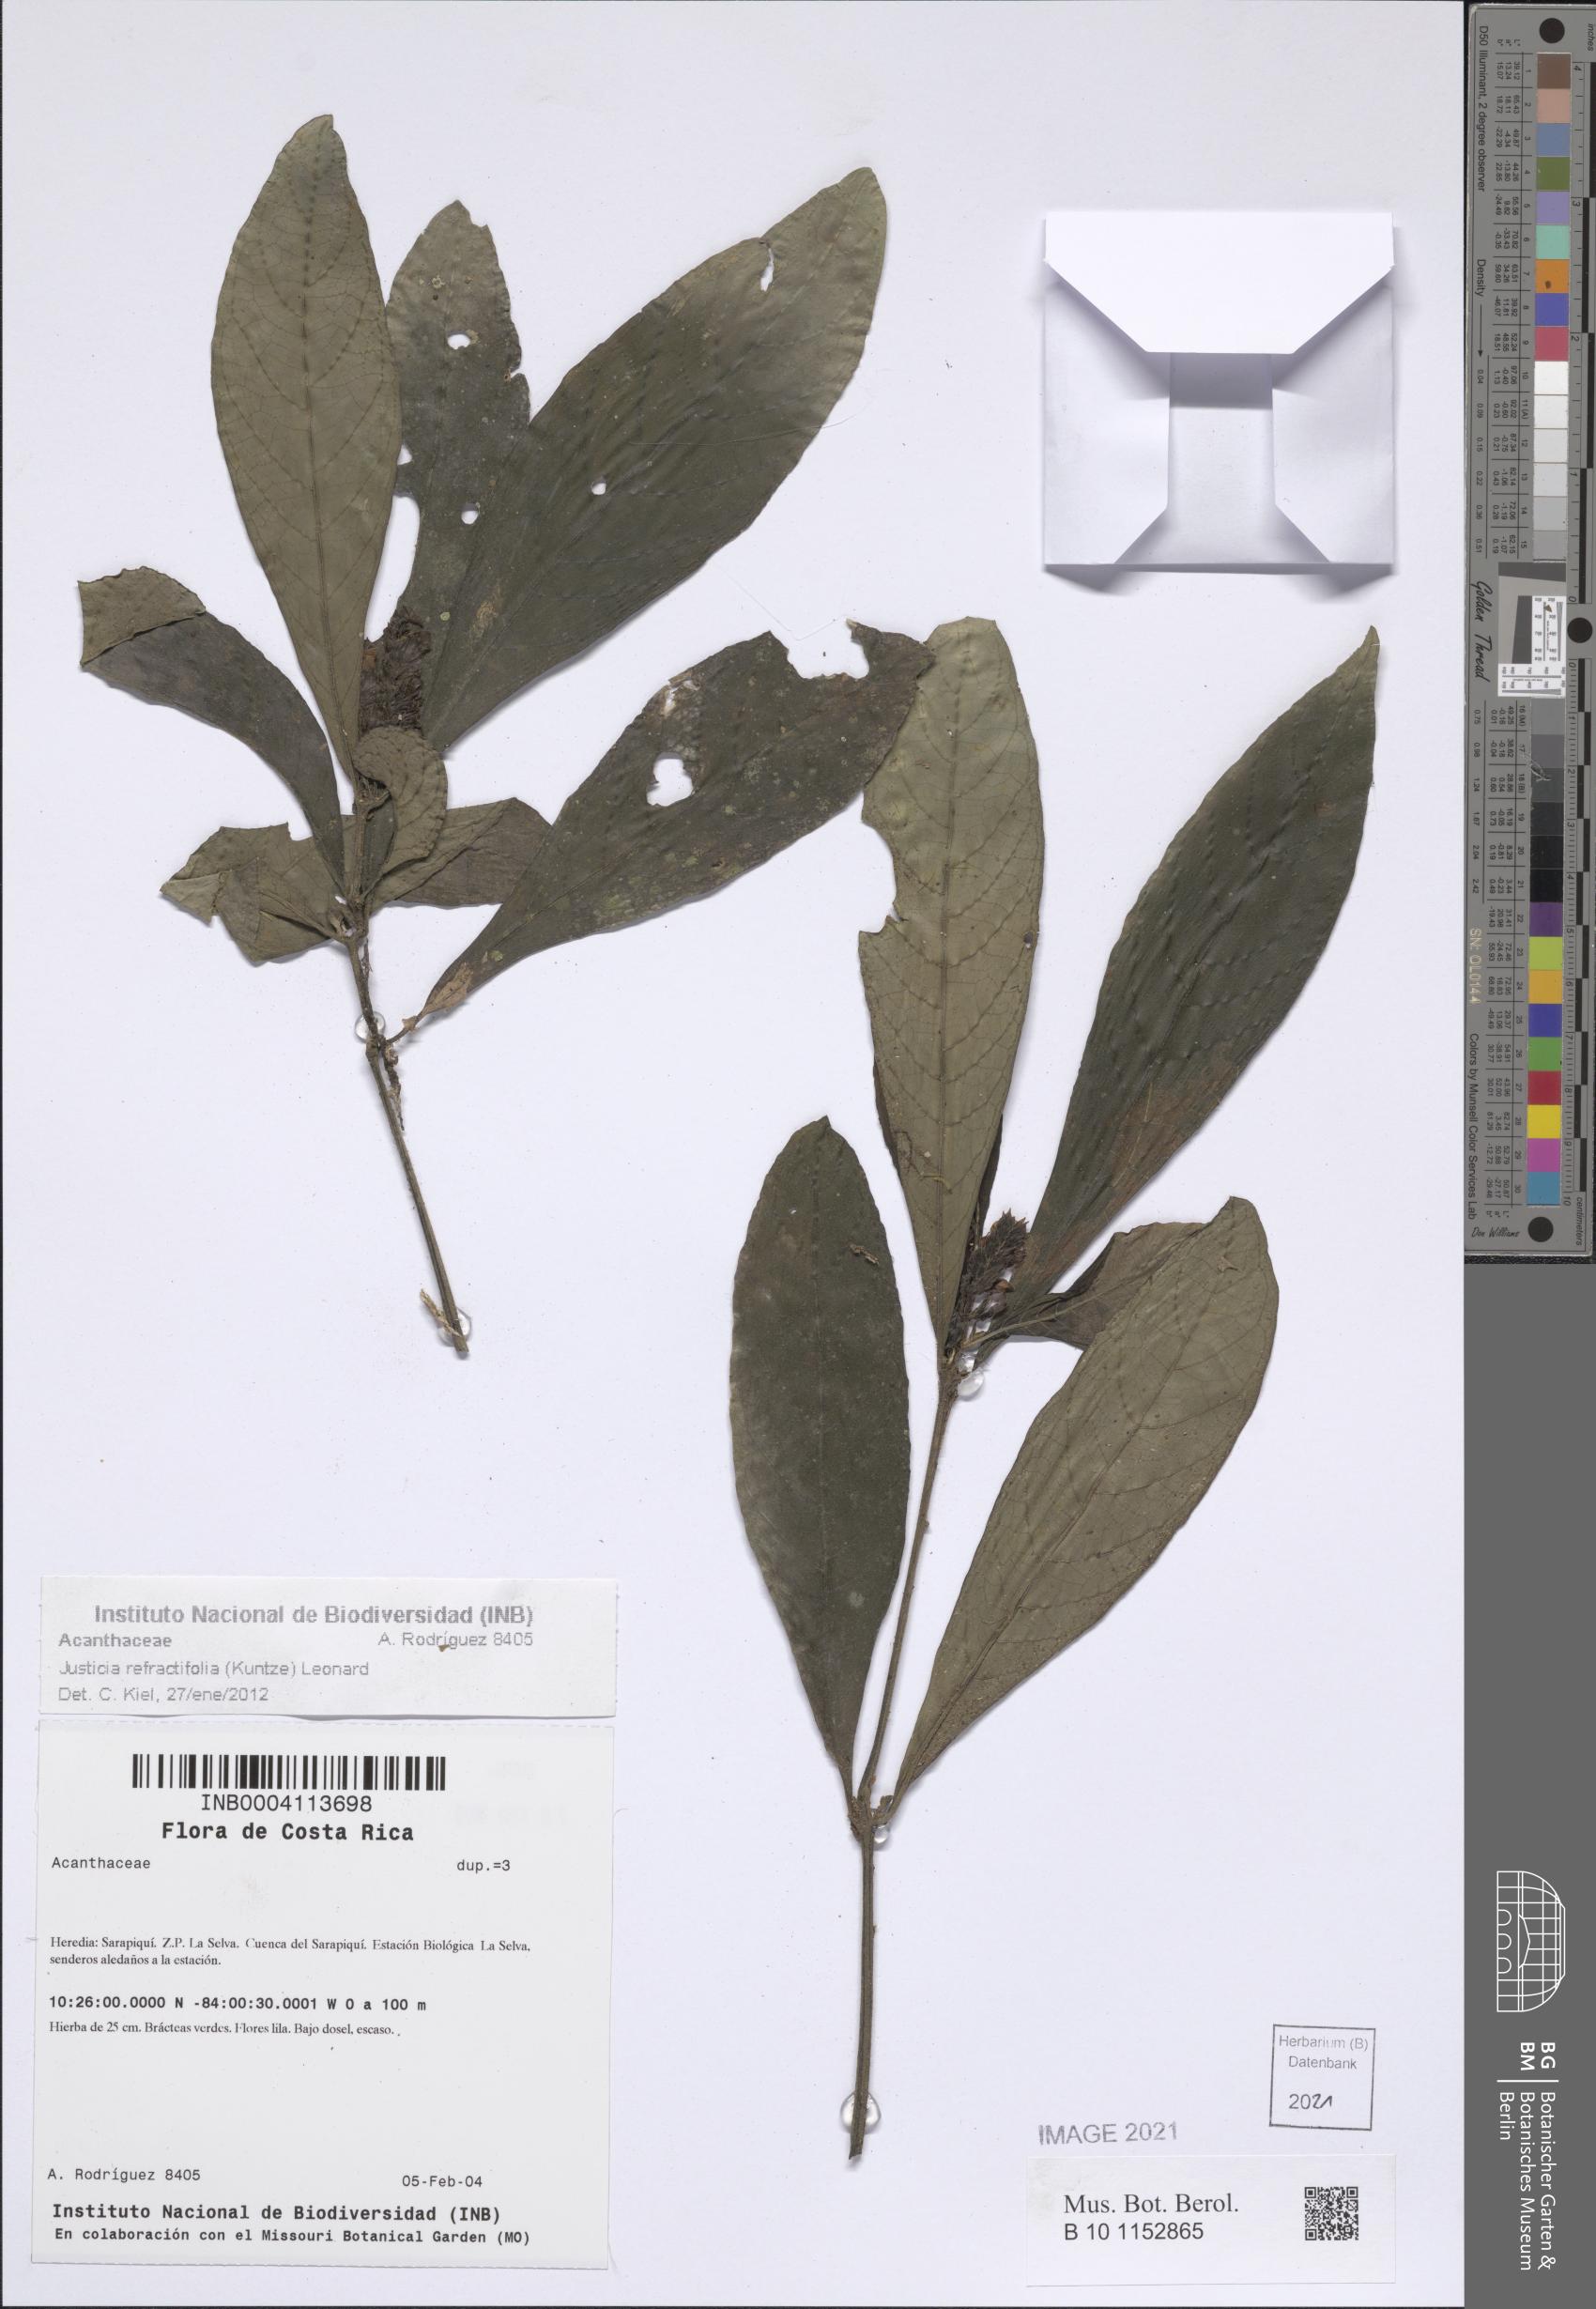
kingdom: Plantae
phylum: Tracheophyta
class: Magnoliopsida
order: Lamiales
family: Acanthaceae
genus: Justicia
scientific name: Justicia refractifolia
